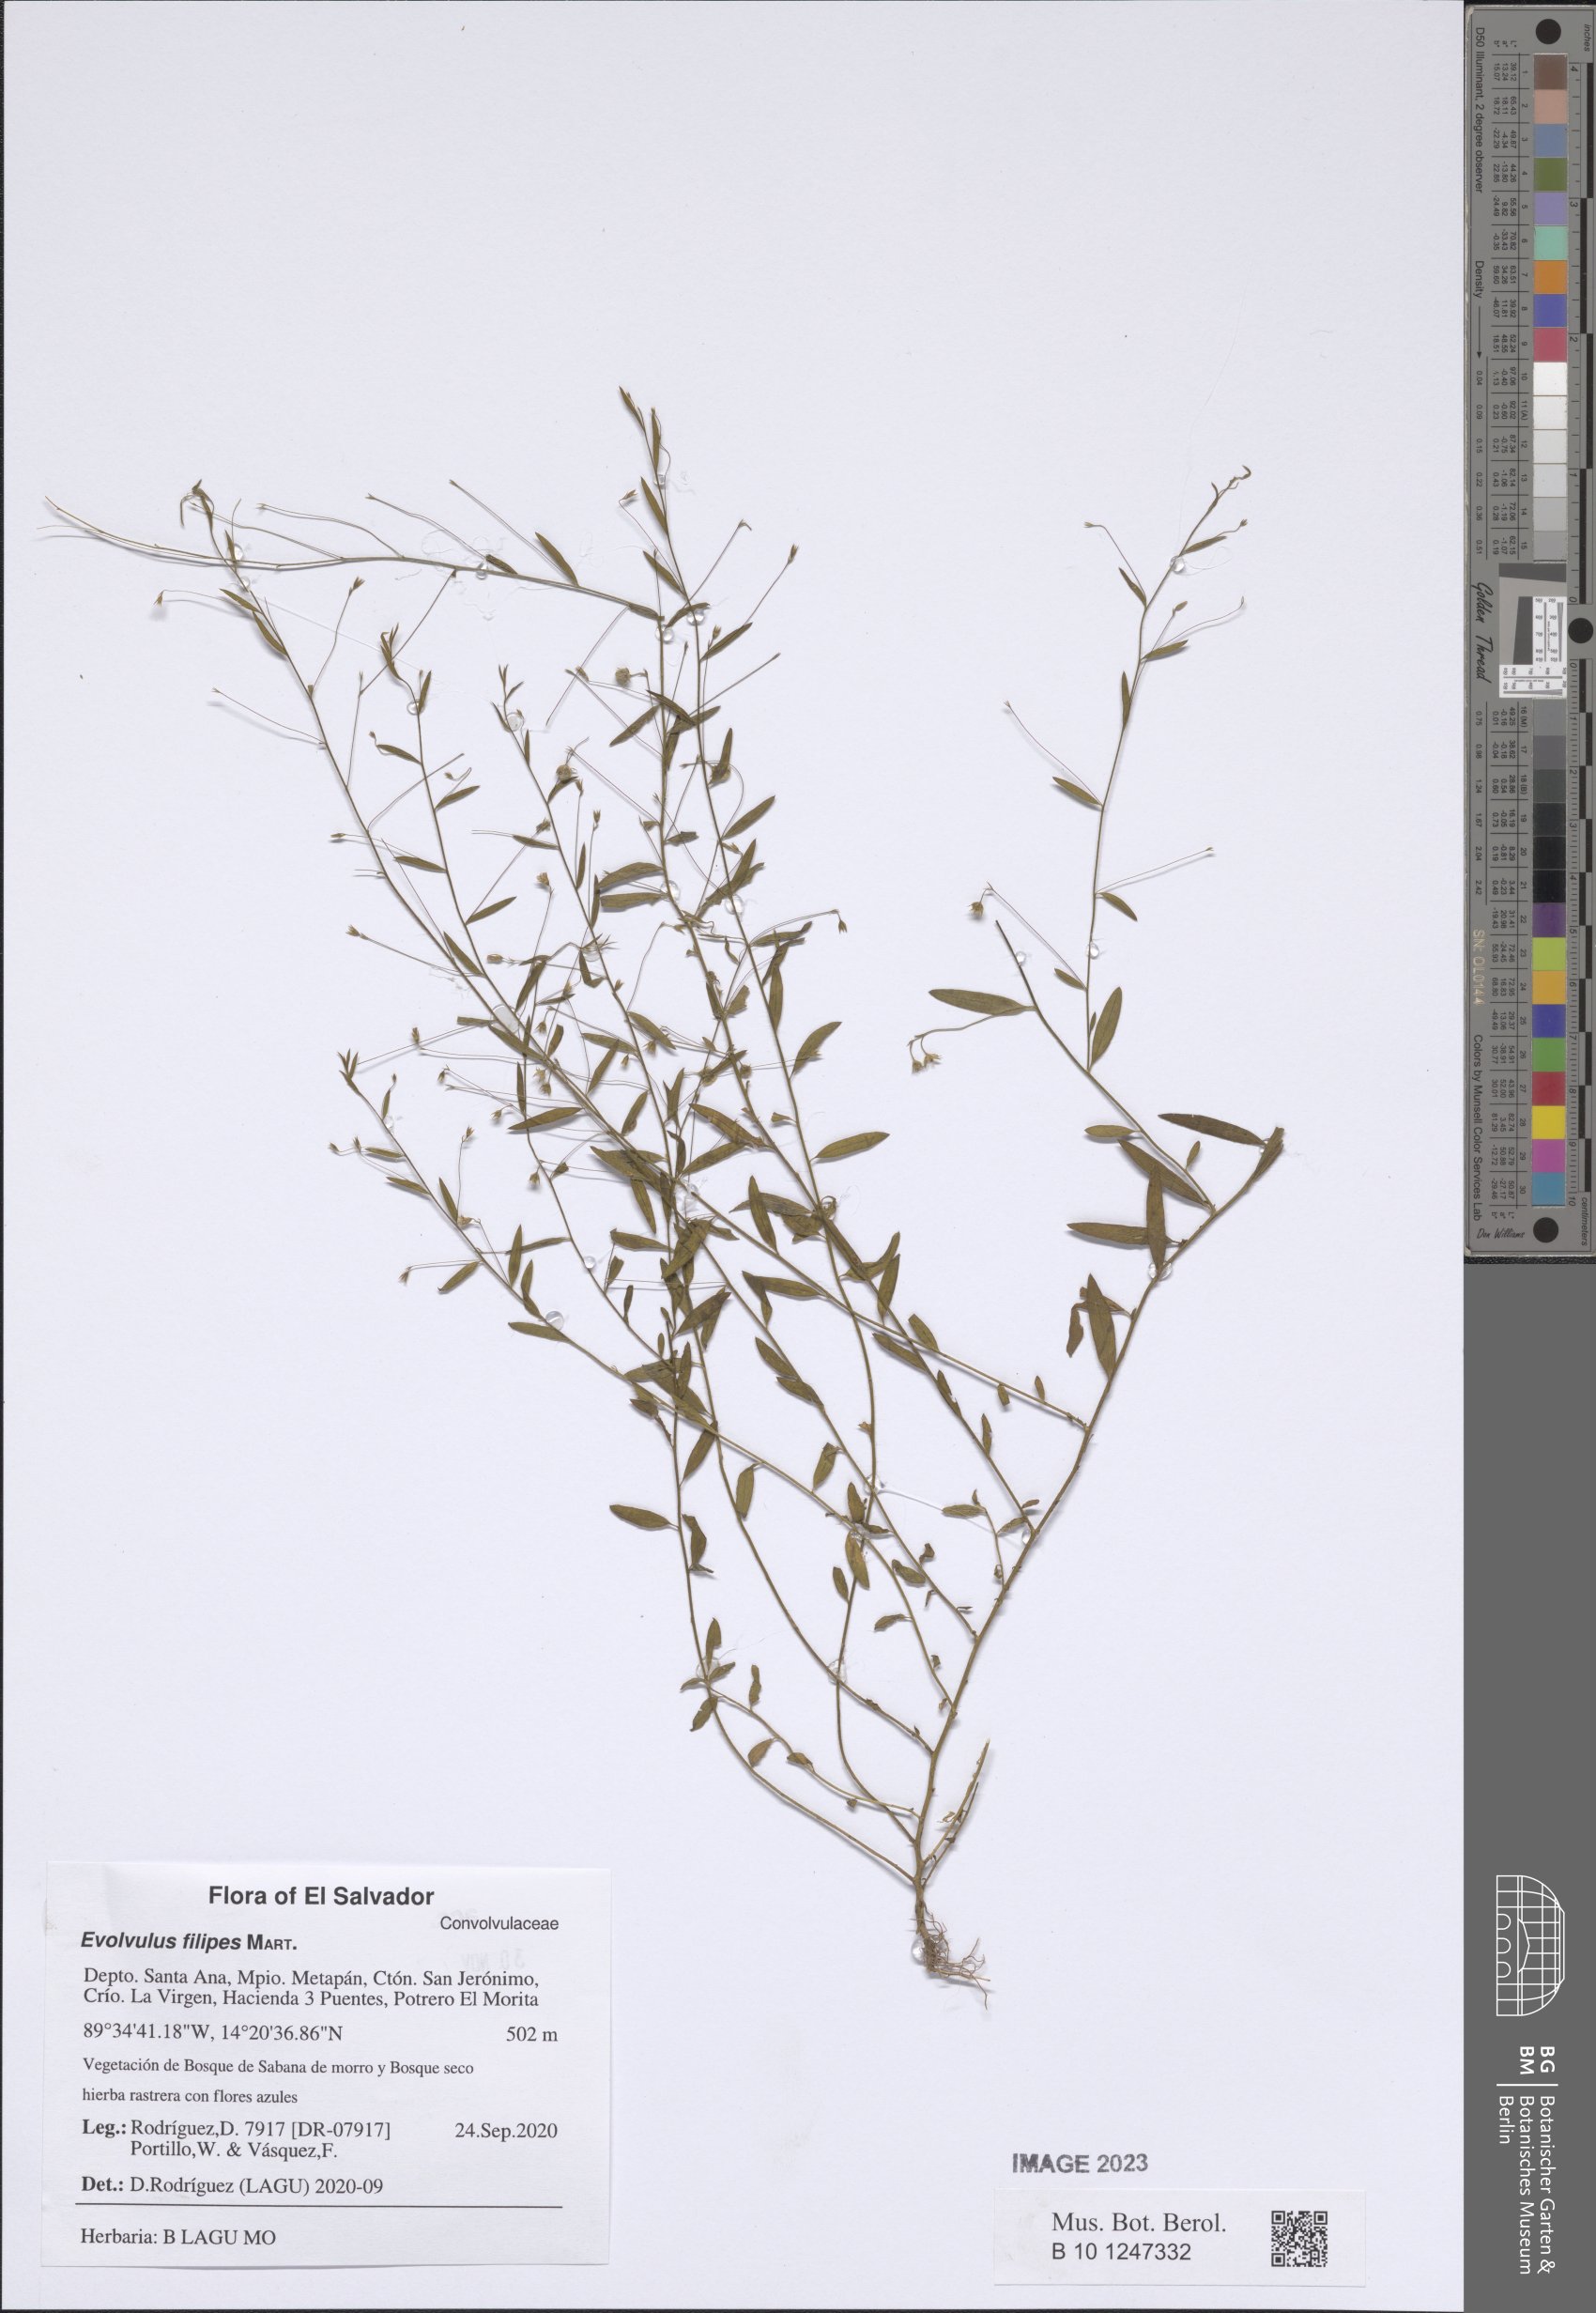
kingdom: Plantae
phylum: Tracheophyta
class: Magnoliopsida
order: Solanales
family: Convolvulaceae
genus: Evolvulus
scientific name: Evolvulus filipes
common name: Maryland dwarf morning-glory
